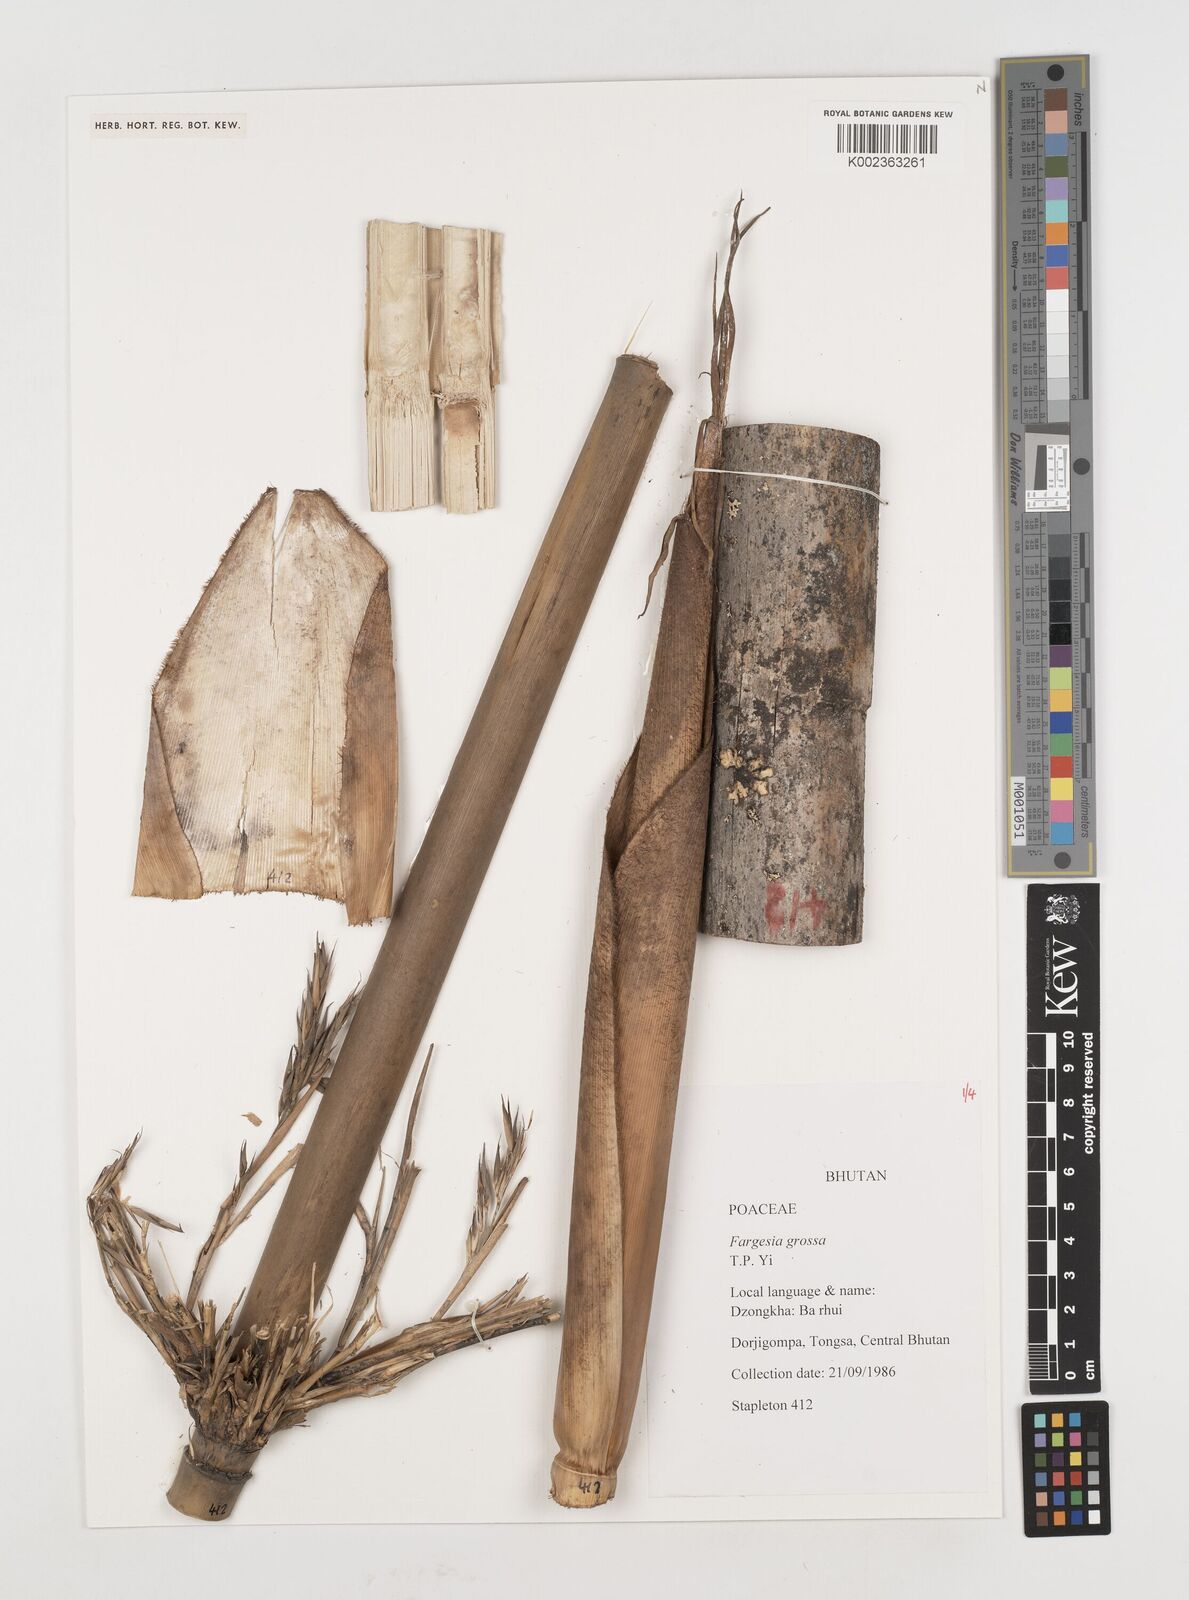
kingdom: Plantae
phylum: Tracheophyta
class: Liliopsida
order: Poales
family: Poaceae
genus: Borinda
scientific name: Borinda grossa
